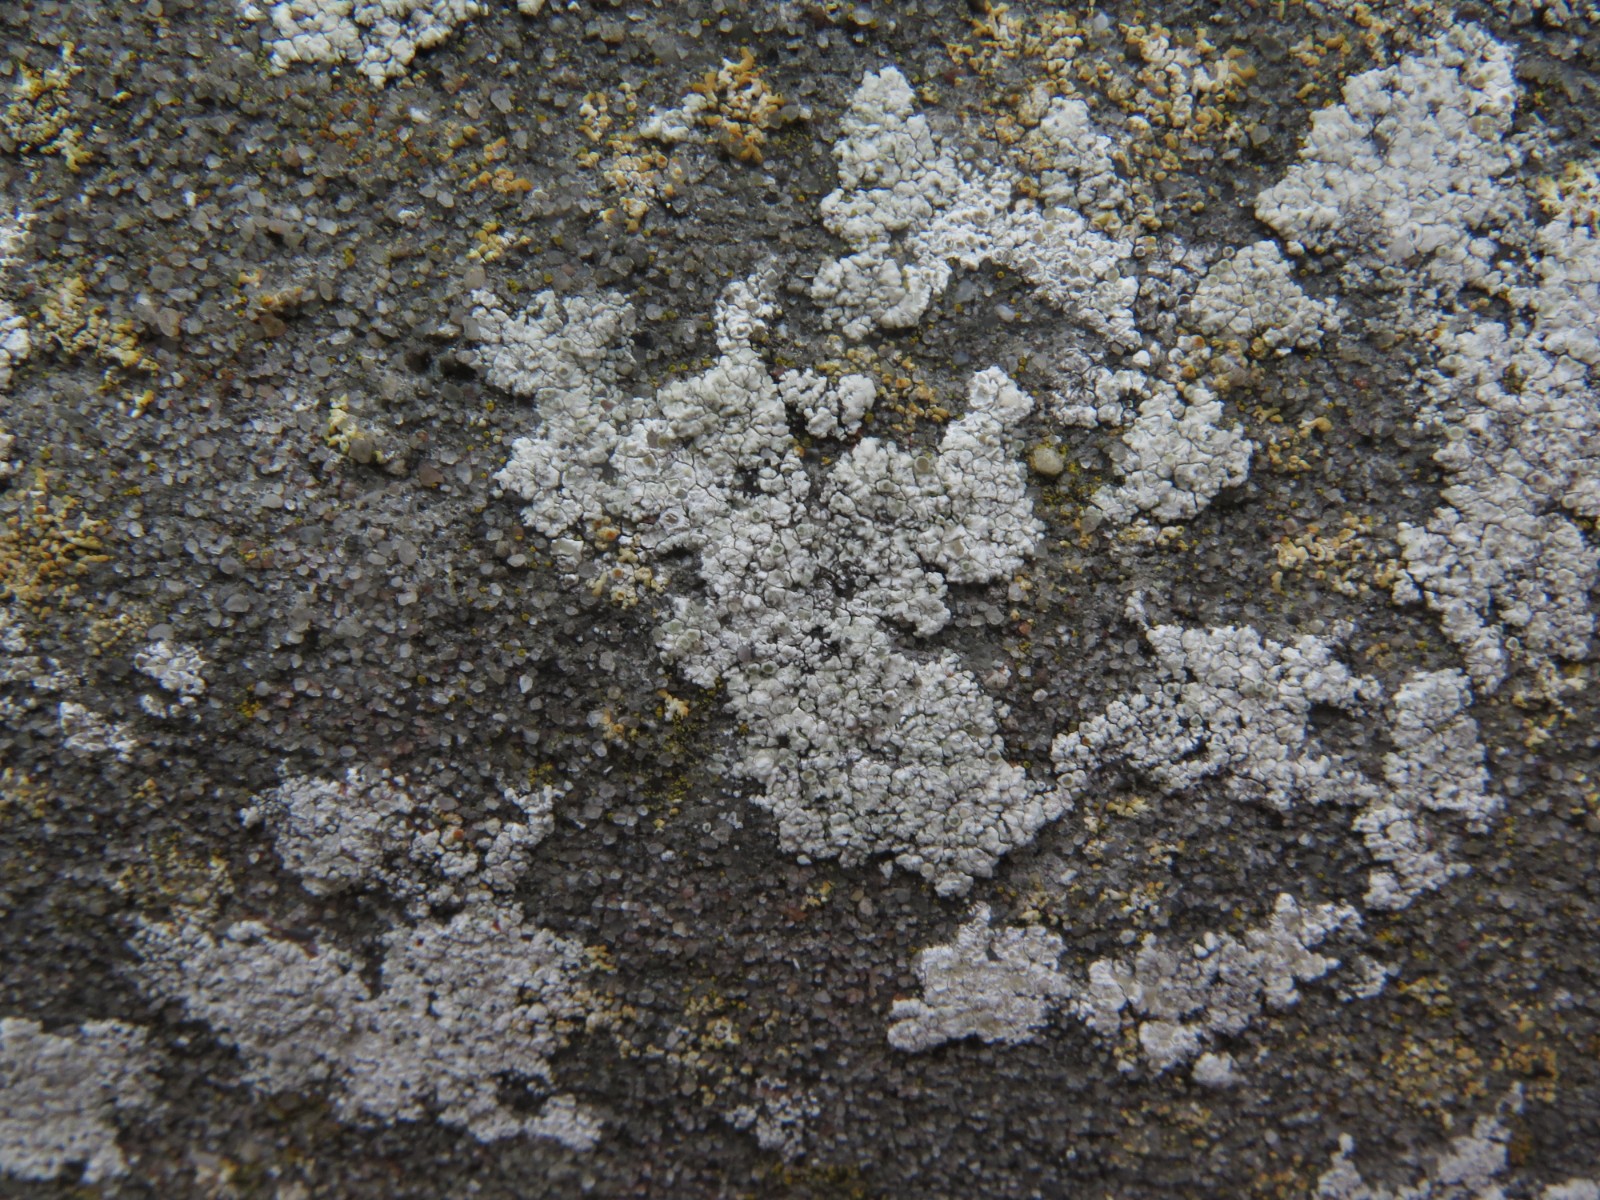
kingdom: Fungi
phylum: Ascomycota
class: Lecanoromycetes
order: Lecanorales
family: Lecanoraceae
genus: Polyozosia
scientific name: Polyozosia albescens
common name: cement-kantskivelav
